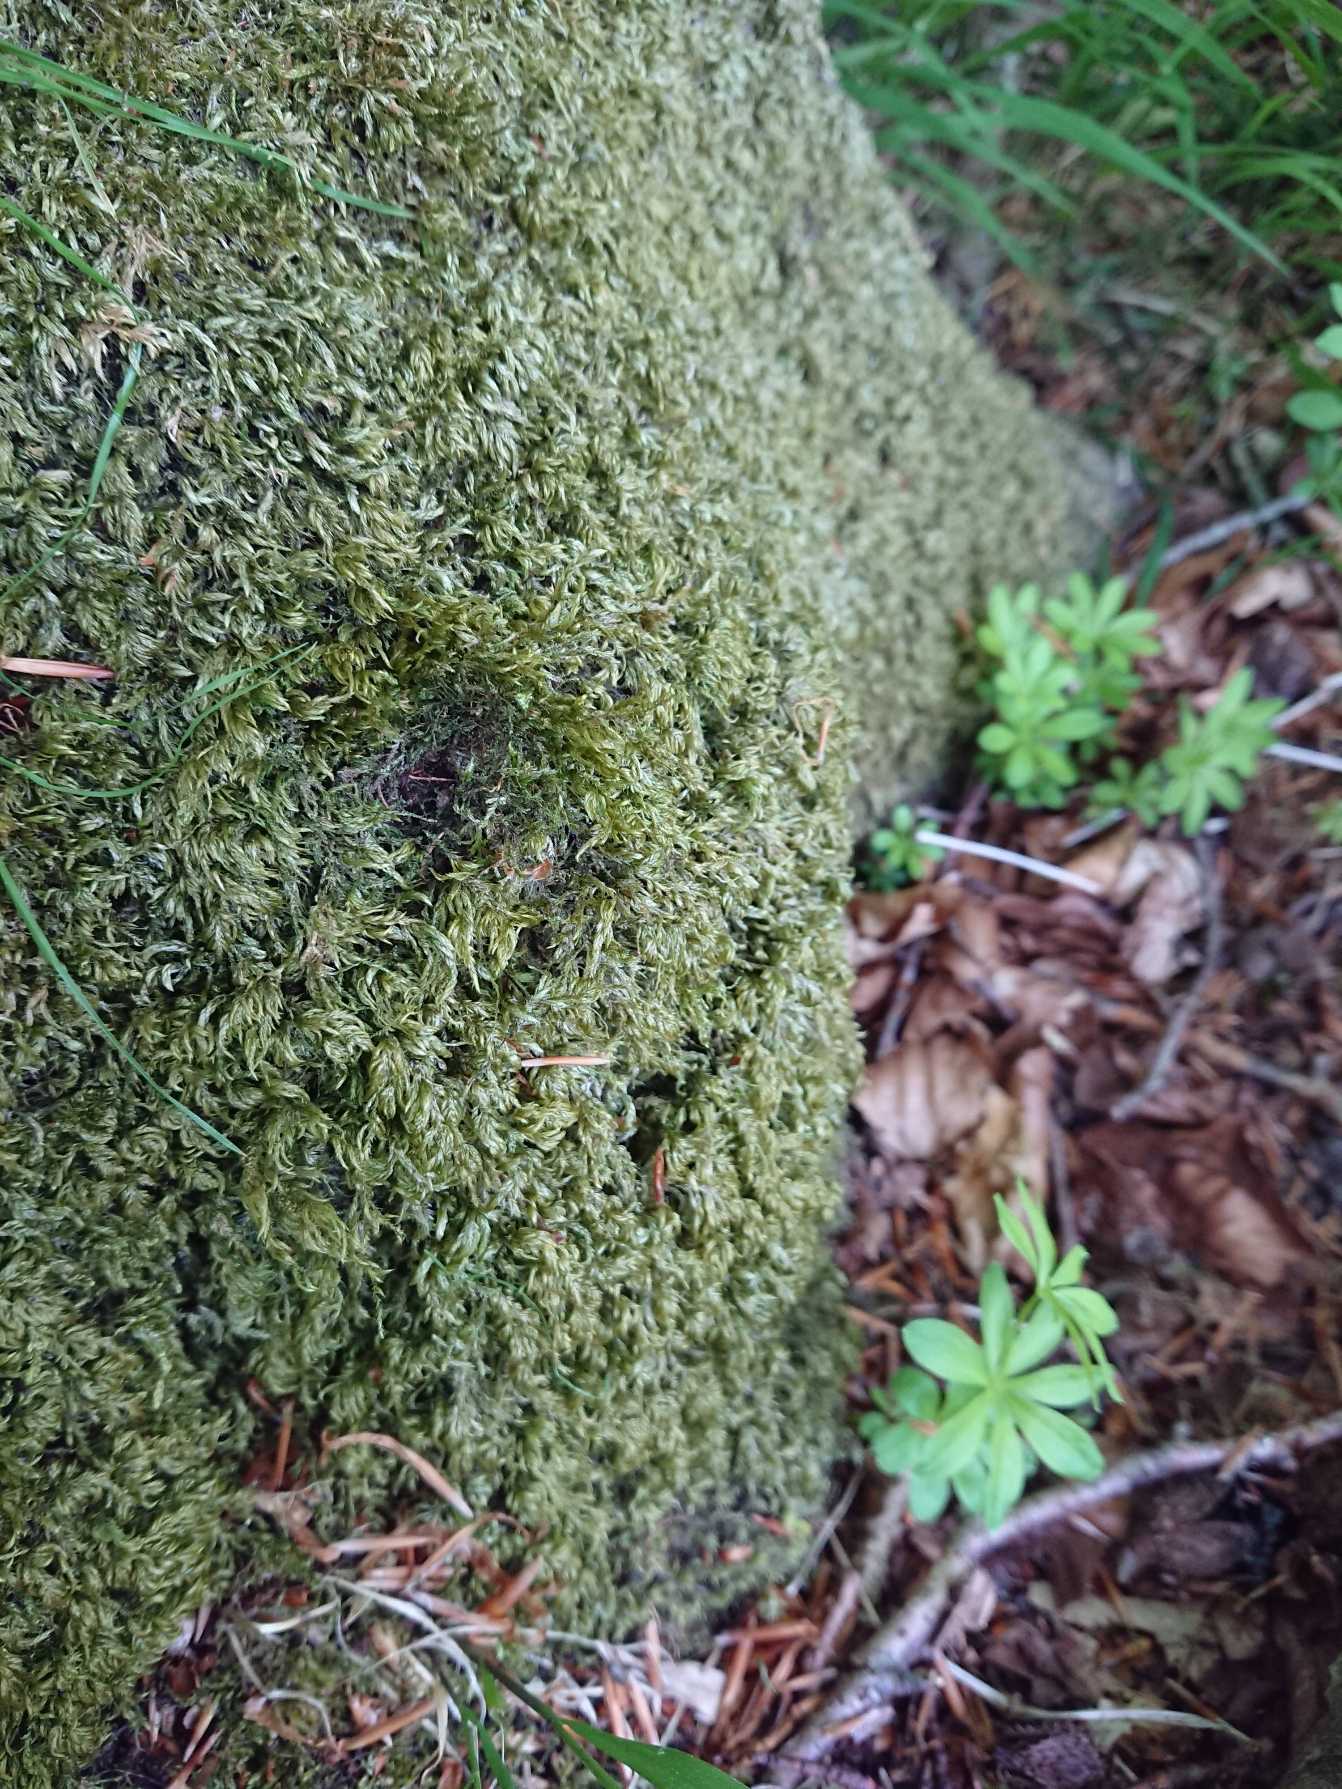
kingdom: Plantae
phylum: Bryophyta
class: Bryopsida
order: Hypnales
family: Lembophyllaceae
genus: Pseudisothecium
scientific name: Pseudisothecium myosuroides
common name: Slank stammemos
